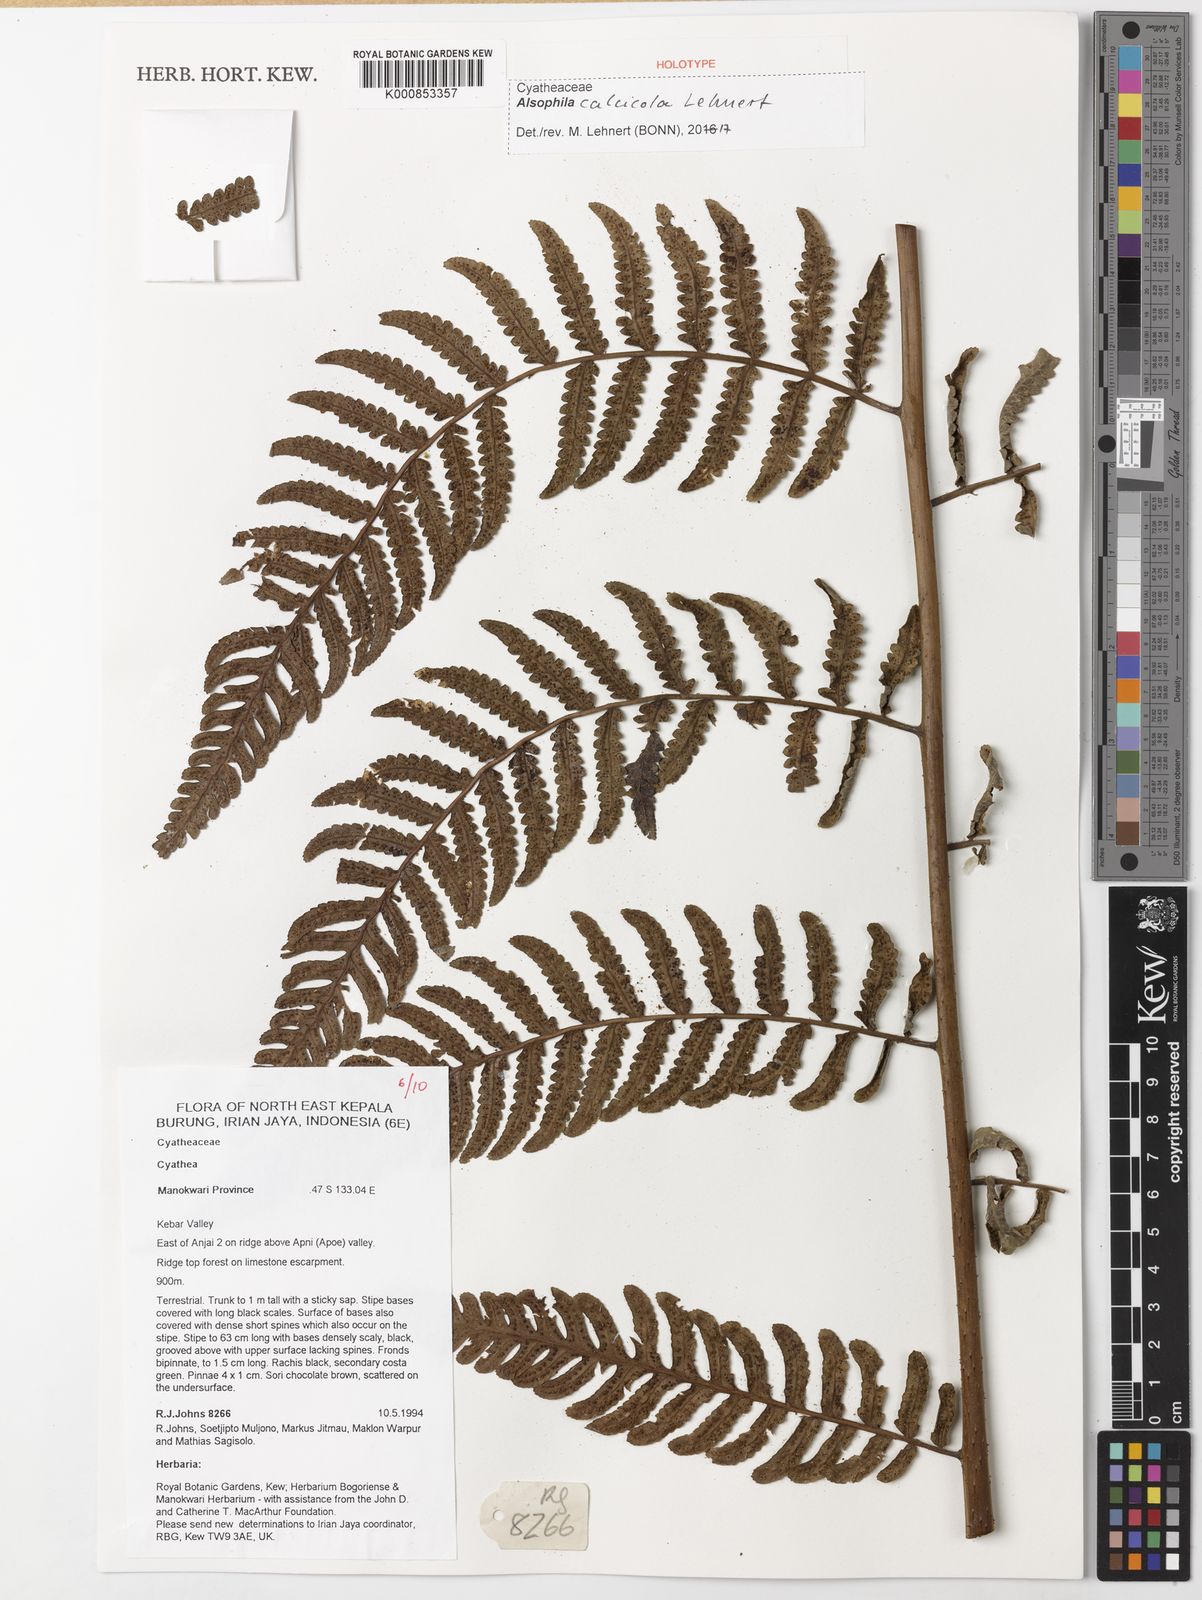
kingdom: Plantae
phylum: Tracheophyta
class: Polypodiopsida
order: Cyatheales
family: Cyatheaceae
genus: Alsophila
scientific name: Alsophila calcicola
